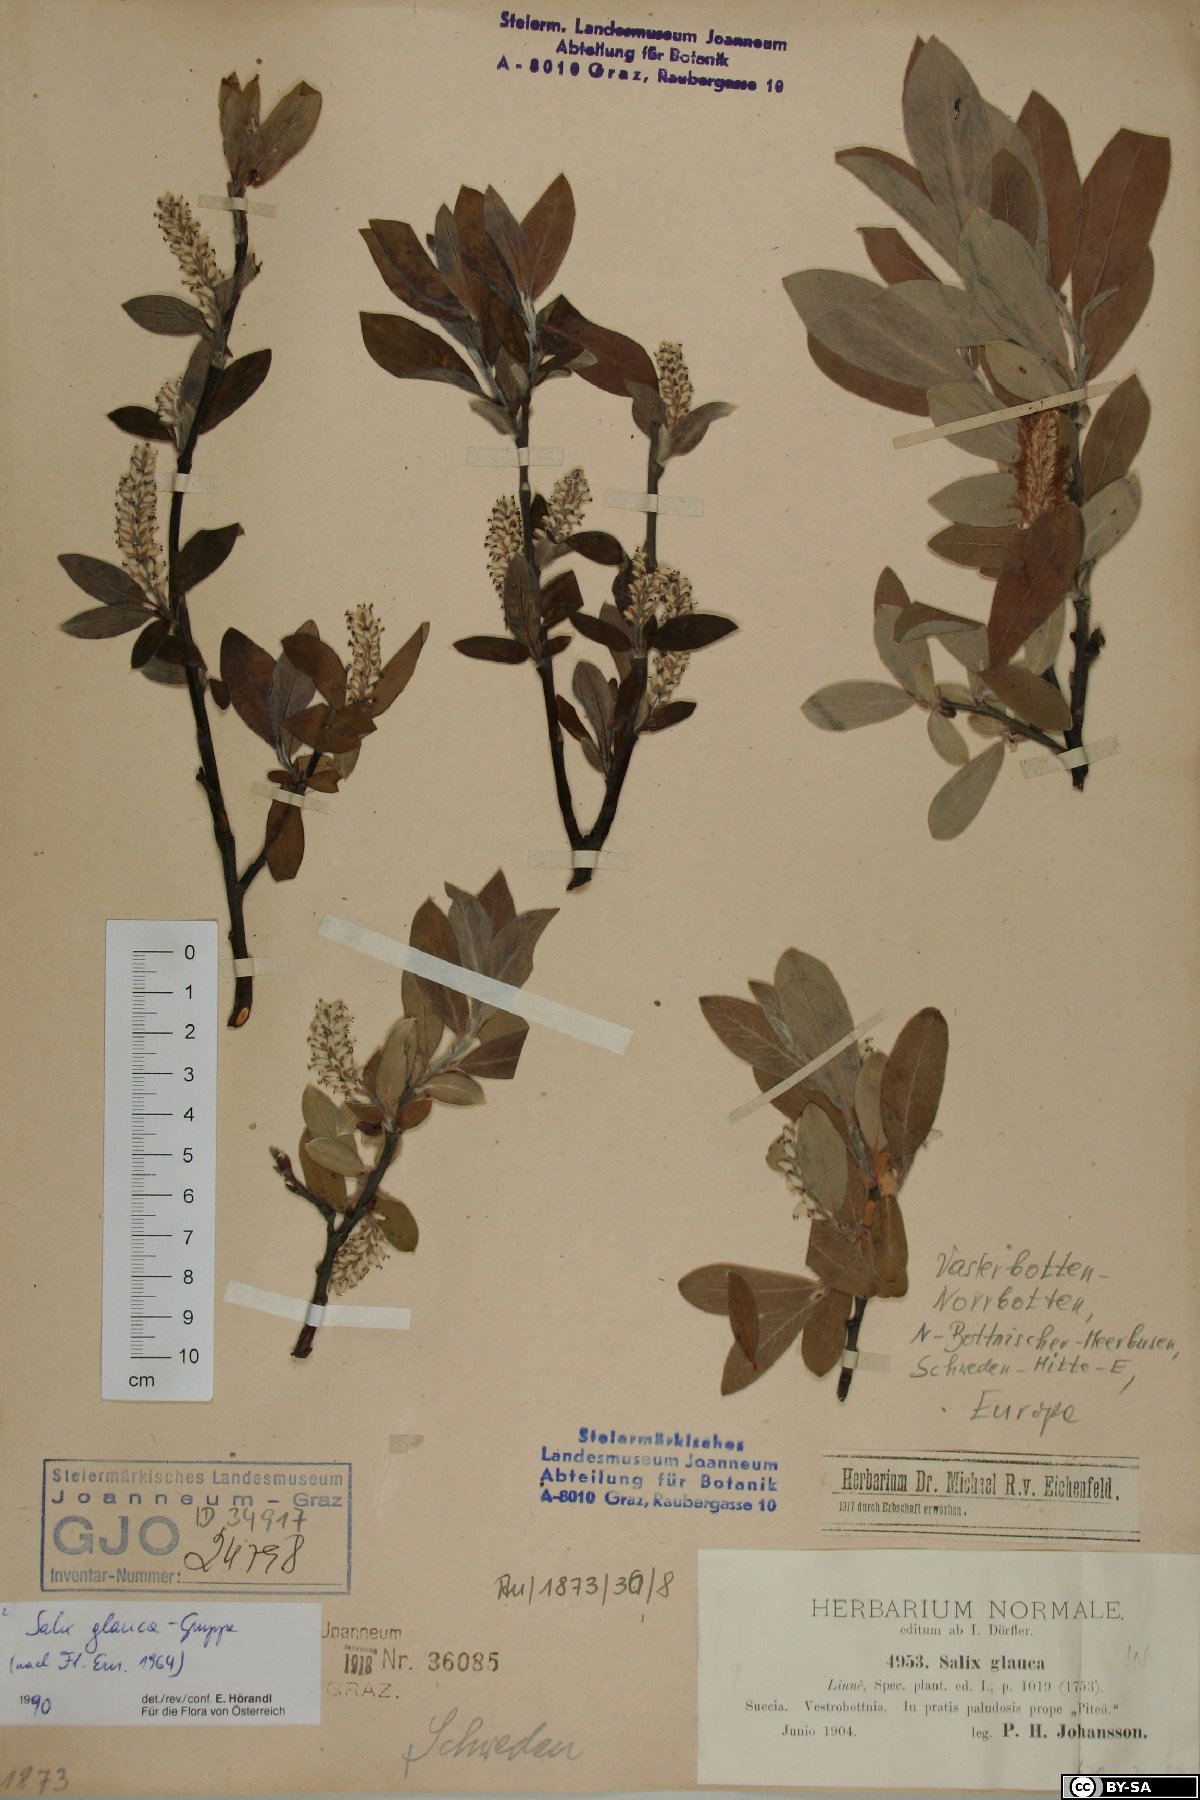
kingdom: Plantae
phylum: Tracheophyta
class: Magnoliopsida
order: Malpighiales
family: Salicaceae
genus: Salix
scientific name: Salix glauca
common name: Glaucous willow
